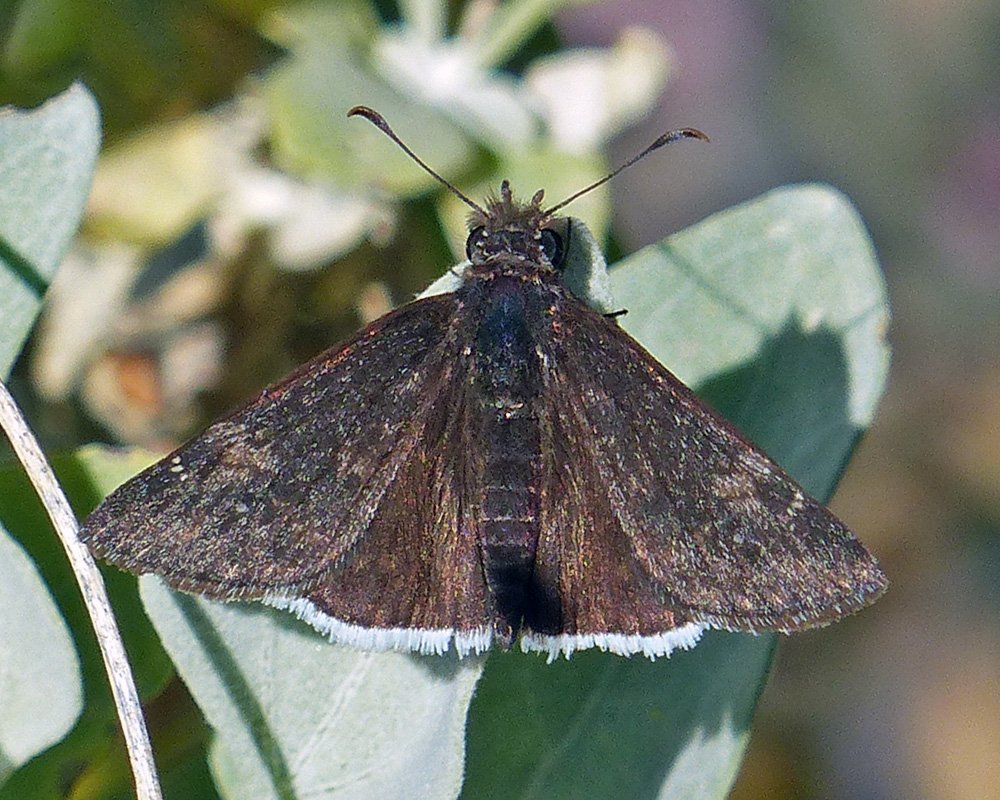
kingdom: Animalia
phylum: Arthropoda
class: Insecta
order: Lepidoptera
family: Hesperiidae
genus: Erynnis
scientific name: Erynnis funeralis
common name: Funereal Duskywing
